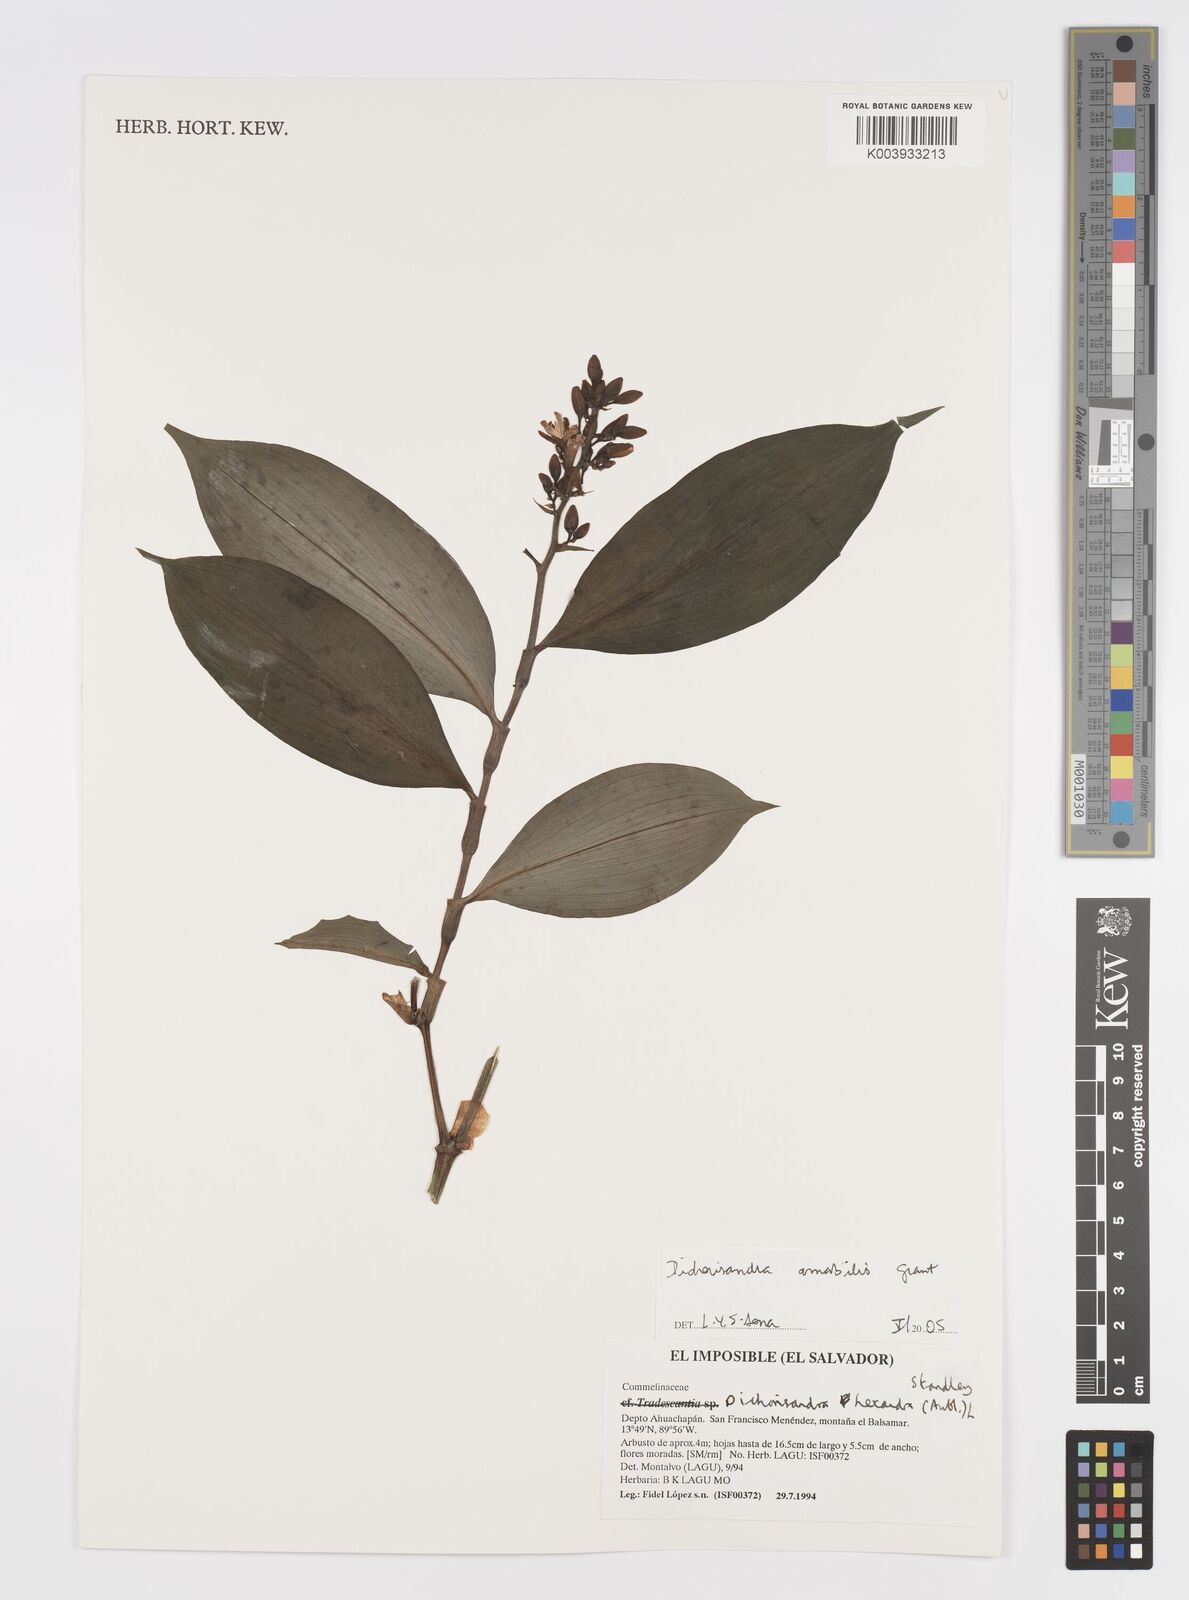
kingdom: Plantae
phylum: Tracheophyta
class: Liliopsida
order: Commelinales
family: Commelinaceae
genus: Dichorisandra
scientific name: Dichorisandra amabilis
